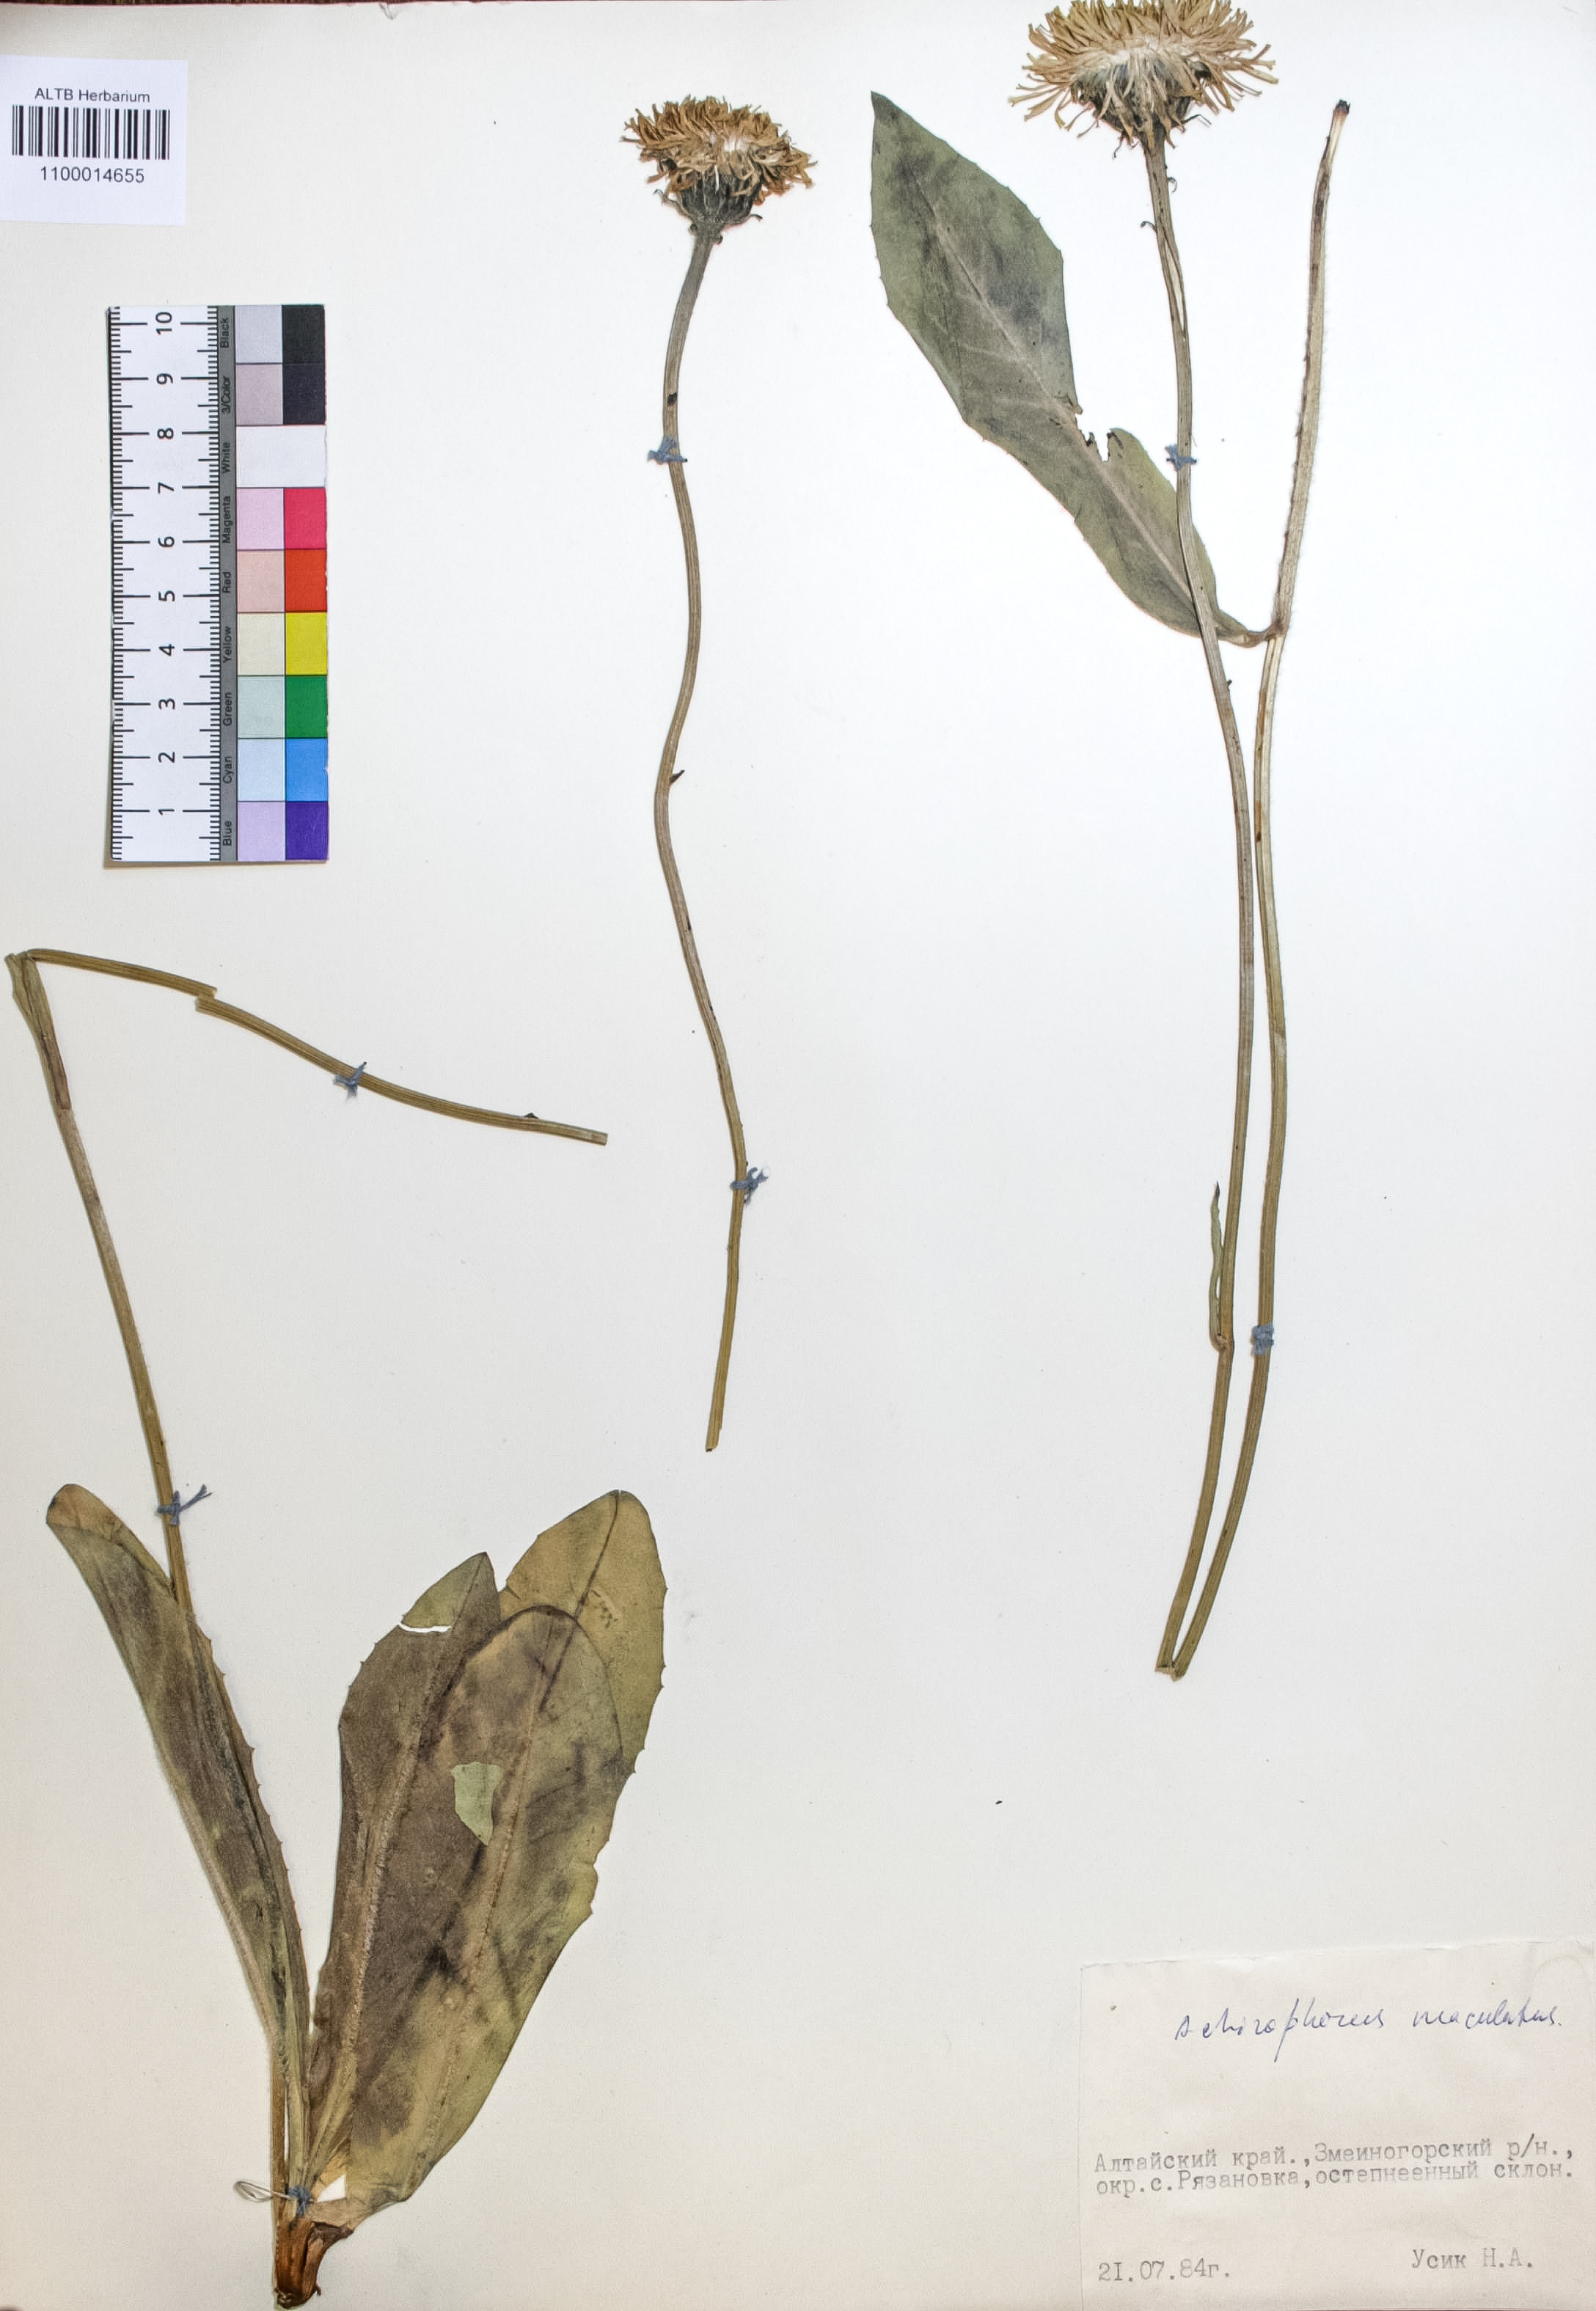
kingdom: Plantae
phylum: Tracheophyta
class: Magnoliopsida
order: Asterales
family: Asteraceae
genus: Trommsdorffia
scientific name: Trommsdorffia maculata
